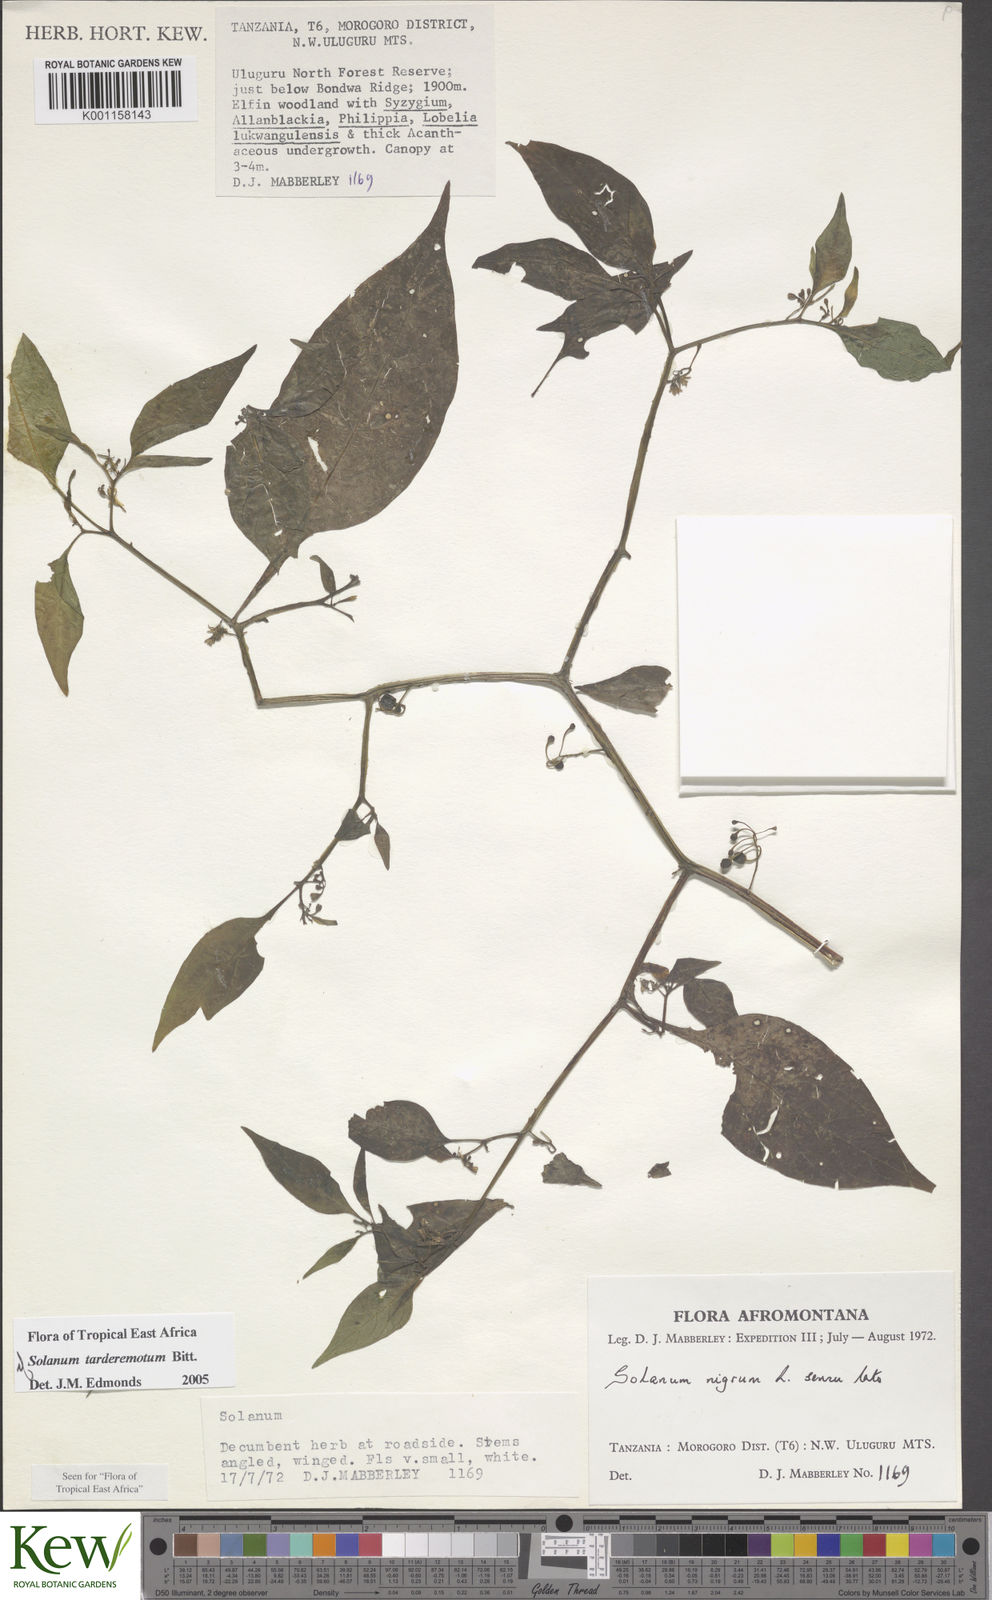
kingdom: Plantae
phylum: Tracheophyta
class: Magnoliopsida
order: Solanales
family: Solanaceae
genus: Solanum
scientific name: Solanum tarderemotum
